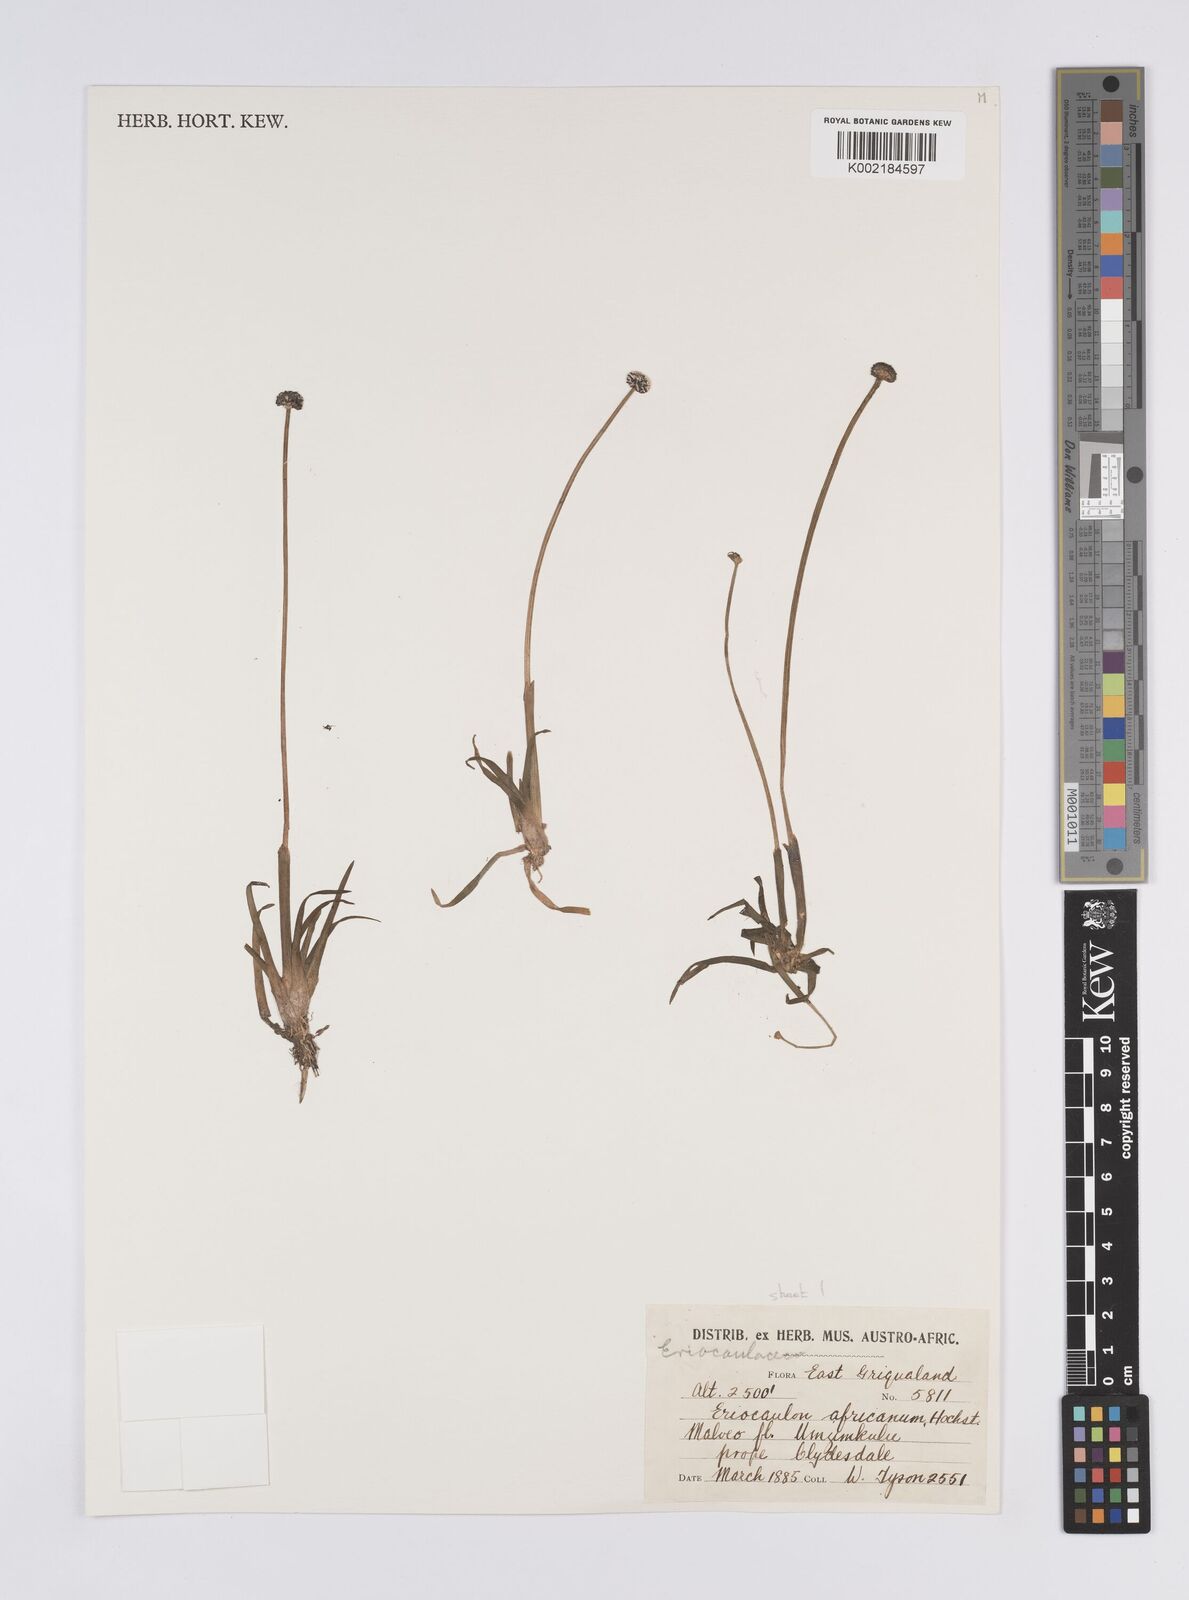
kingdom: Plantae
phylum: Tracheophyta
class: Liliopsida
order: Poales
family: Eriocaulaceae
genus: Eriocaulon
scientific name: Eriocaulon africanum
